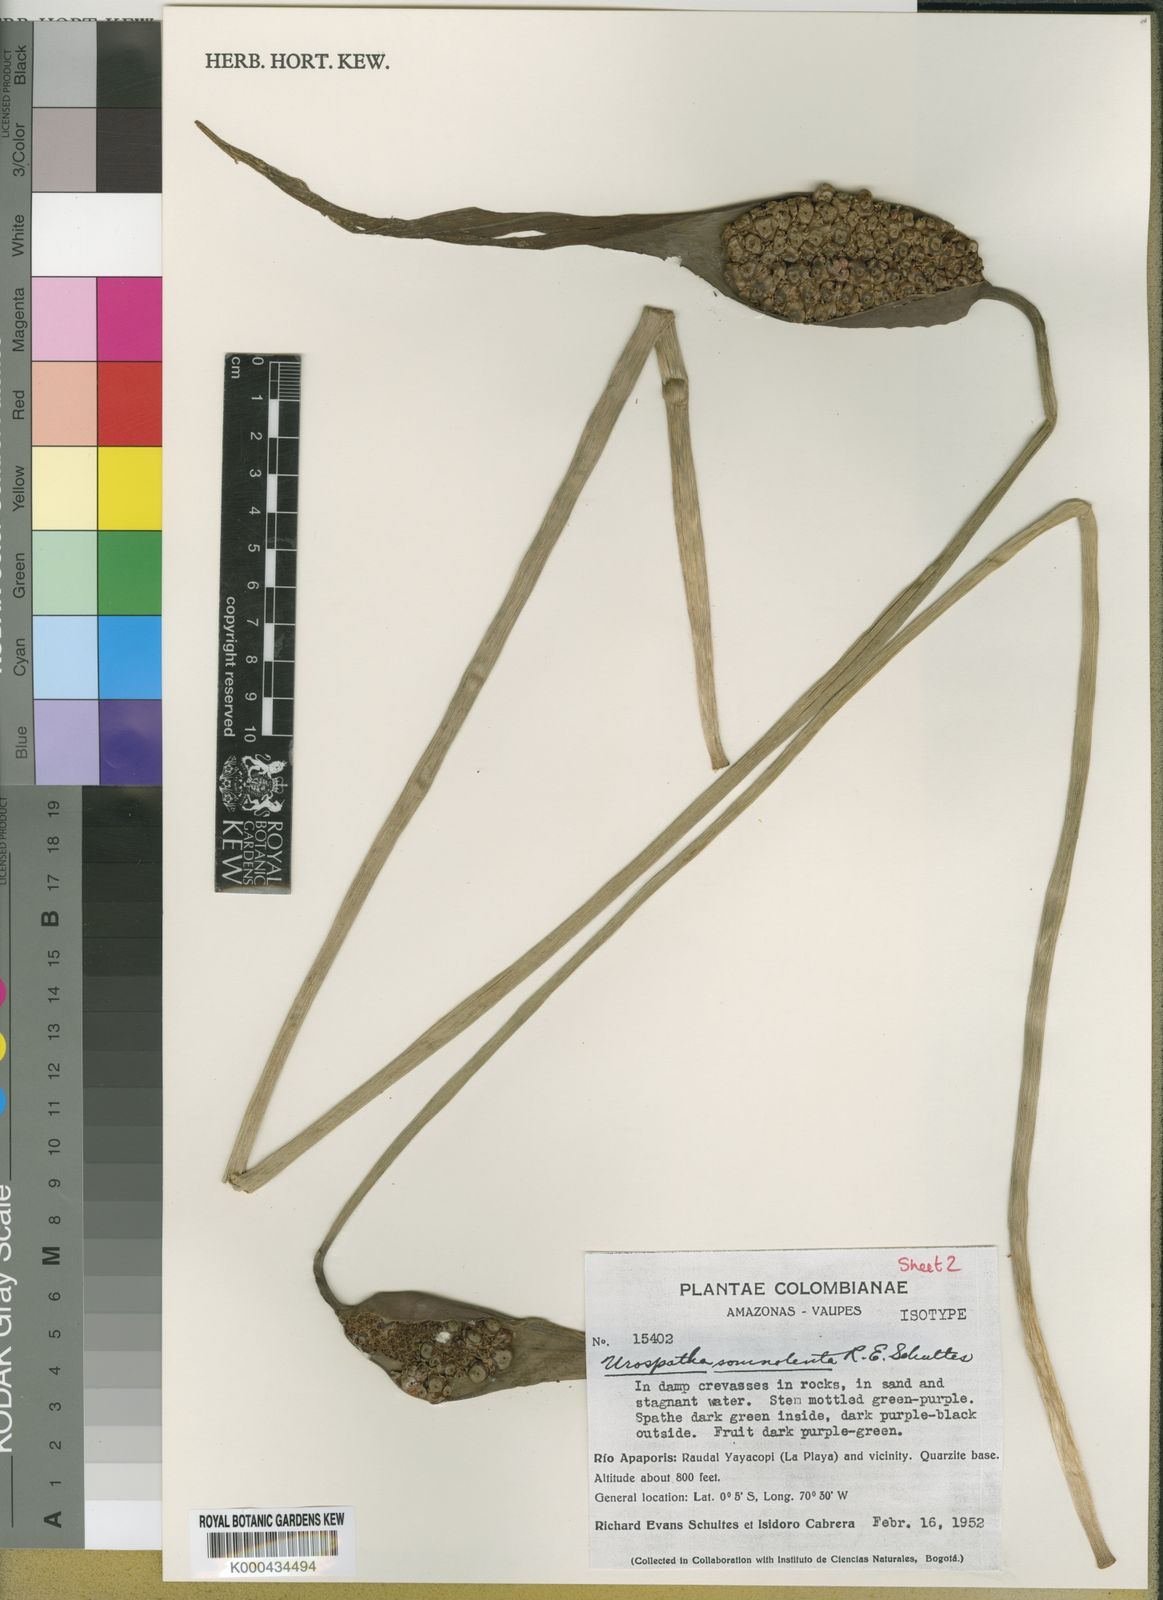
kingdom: Plantae
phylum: Tracheophyta
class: Liliopsida
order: Alismatales
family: Araceae
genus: Urospatha
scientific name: Urospatha somnolenta
